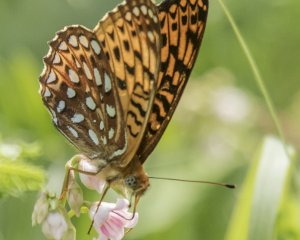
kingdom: Animalia
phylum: Arthropoda
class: Insecta
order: Lepidoptera
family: Nymphalidae
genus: Speyeria
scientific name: Speyeria atlantis
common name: Atlantis Fritillary
